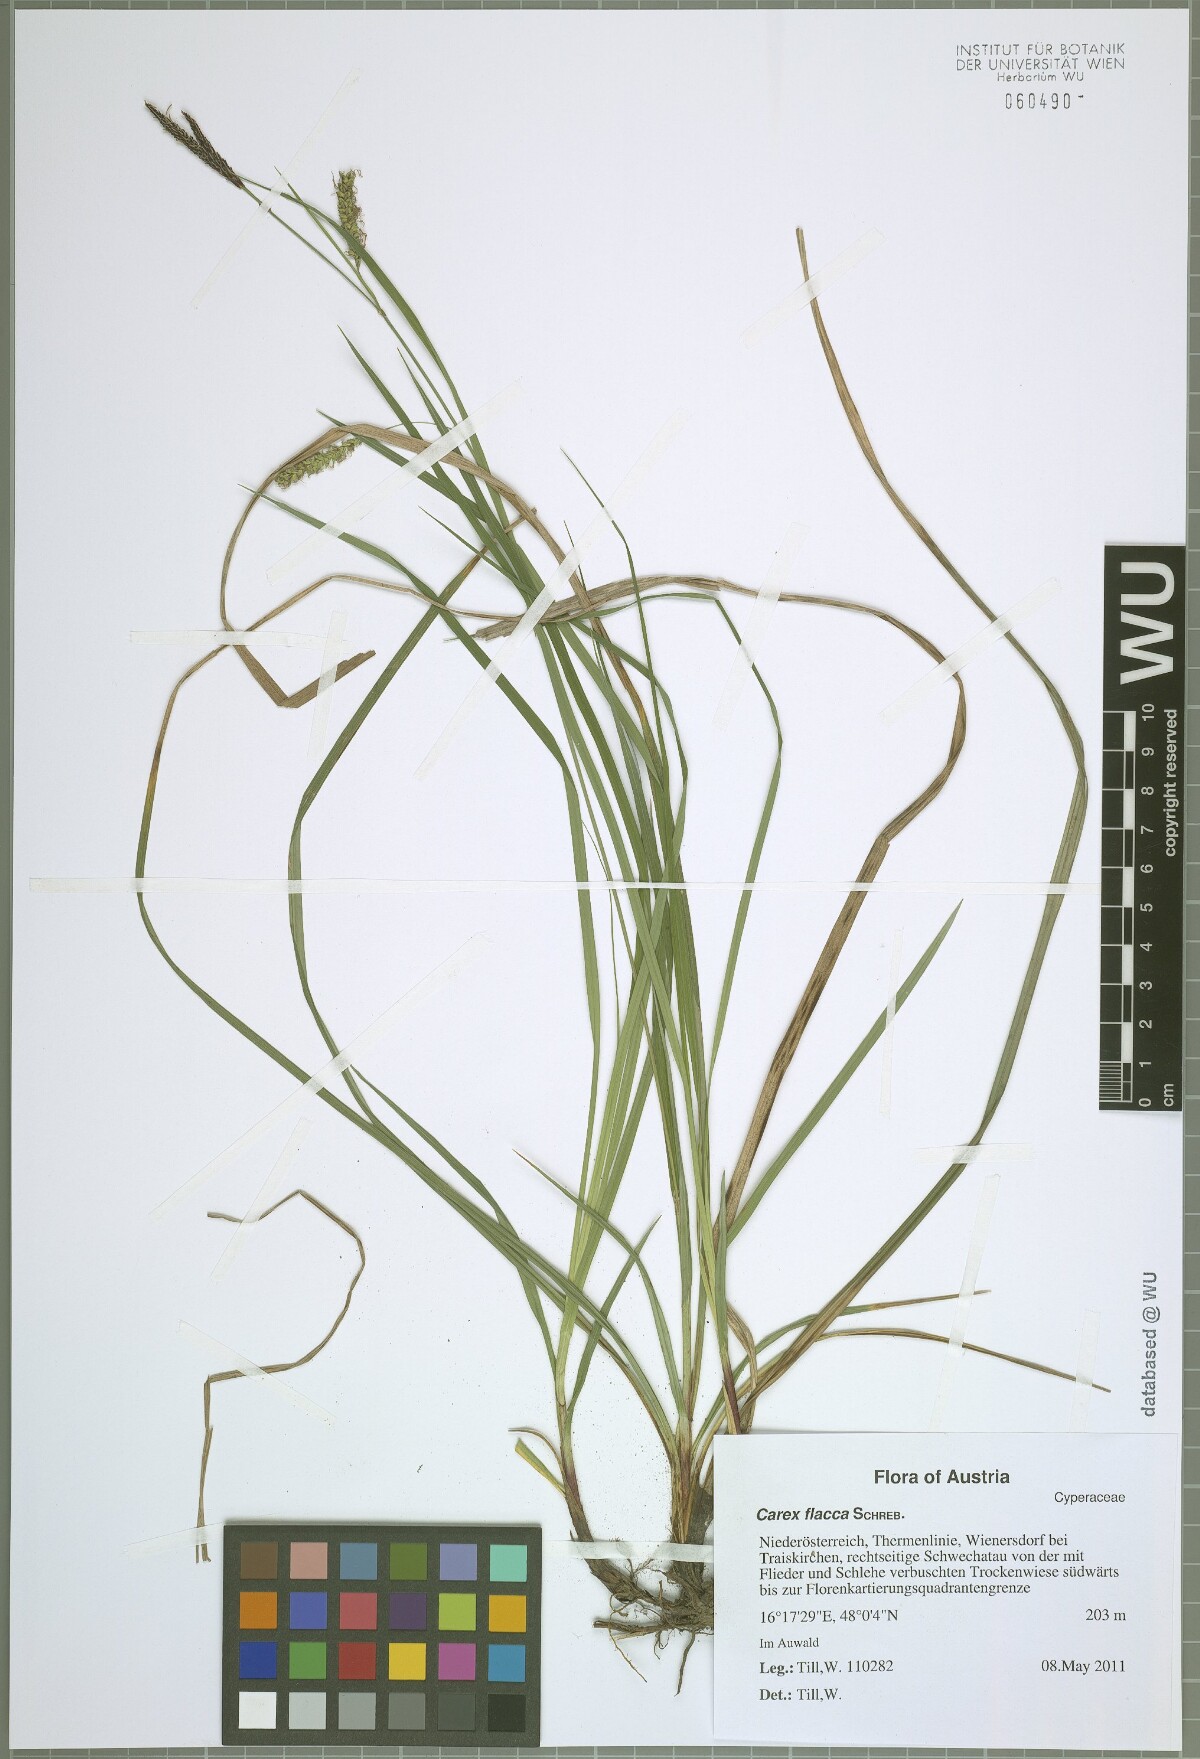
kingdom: Plantae
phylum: Tracheophyta
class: Liliopsida
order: Poales
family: Cyperaceae
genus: Carex
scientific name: Carex flacca
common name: Glaucous sedge
